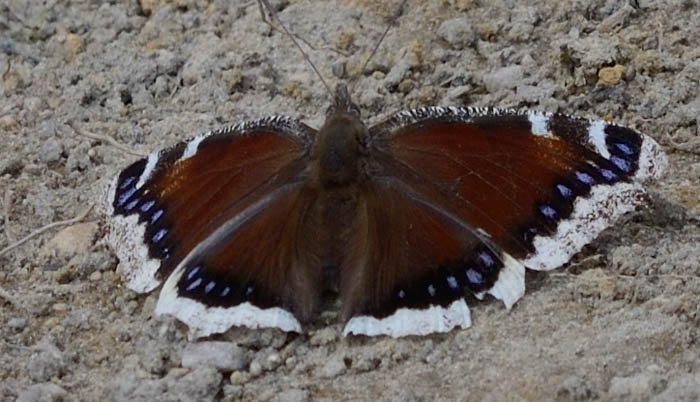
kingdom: Animalia
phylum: Arthropoda
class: Insecta
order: Lepidoptera
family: Nymphalidae
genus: Nymphalis
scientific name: Nymphalis antiopa
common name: Mourning Cloak
